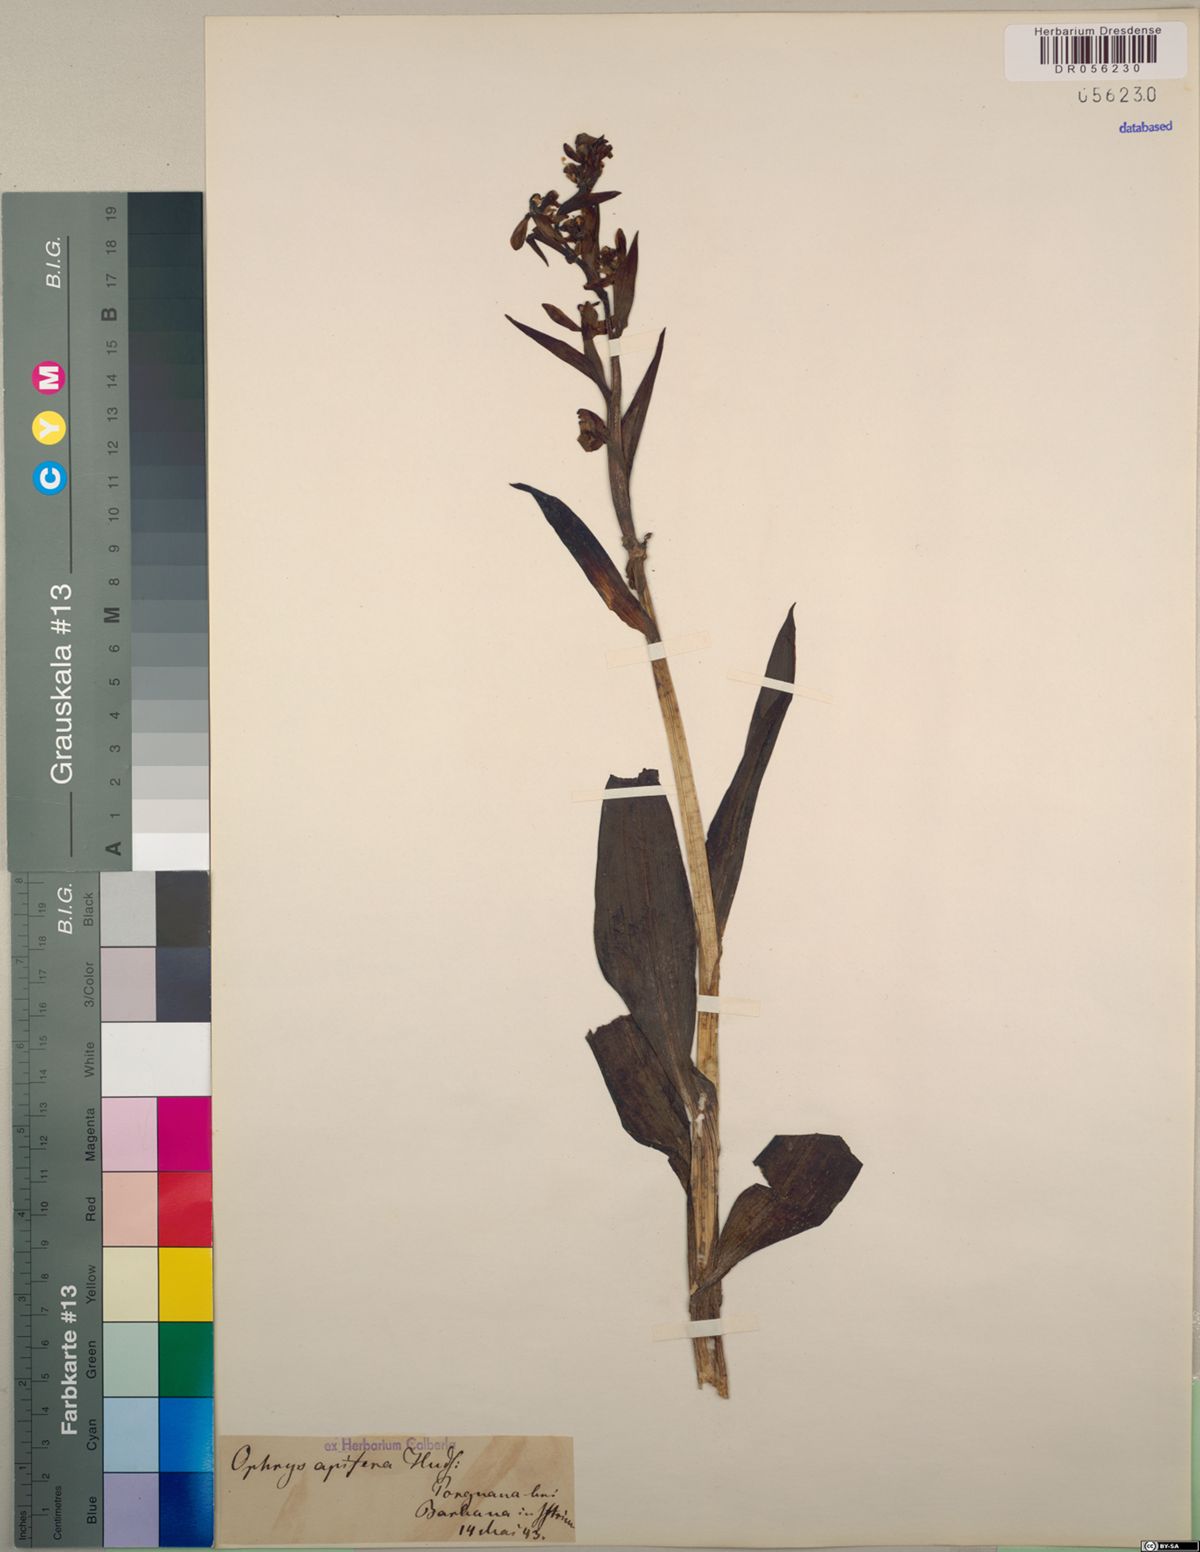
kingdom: Plantae
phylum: Tracheophyta
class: Liliopsida
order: Asparagales
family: Orchidaceae
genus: Ophrys
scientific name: Ophrys apifera
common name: Bee orchid
